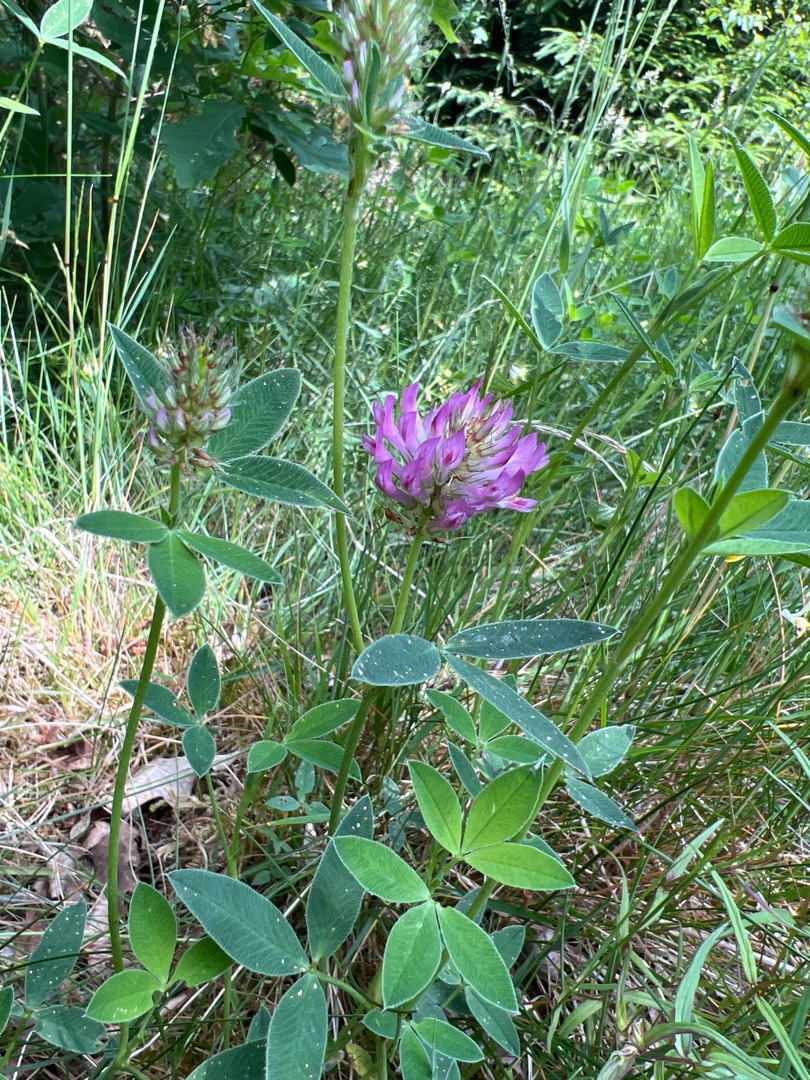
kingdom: Plantae
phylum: Tracheophyta
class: Magnoliopsida
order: Fabales
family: Fabaceae
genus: Trifolium
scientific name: Trifolium medium
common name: Bugtet kløver
